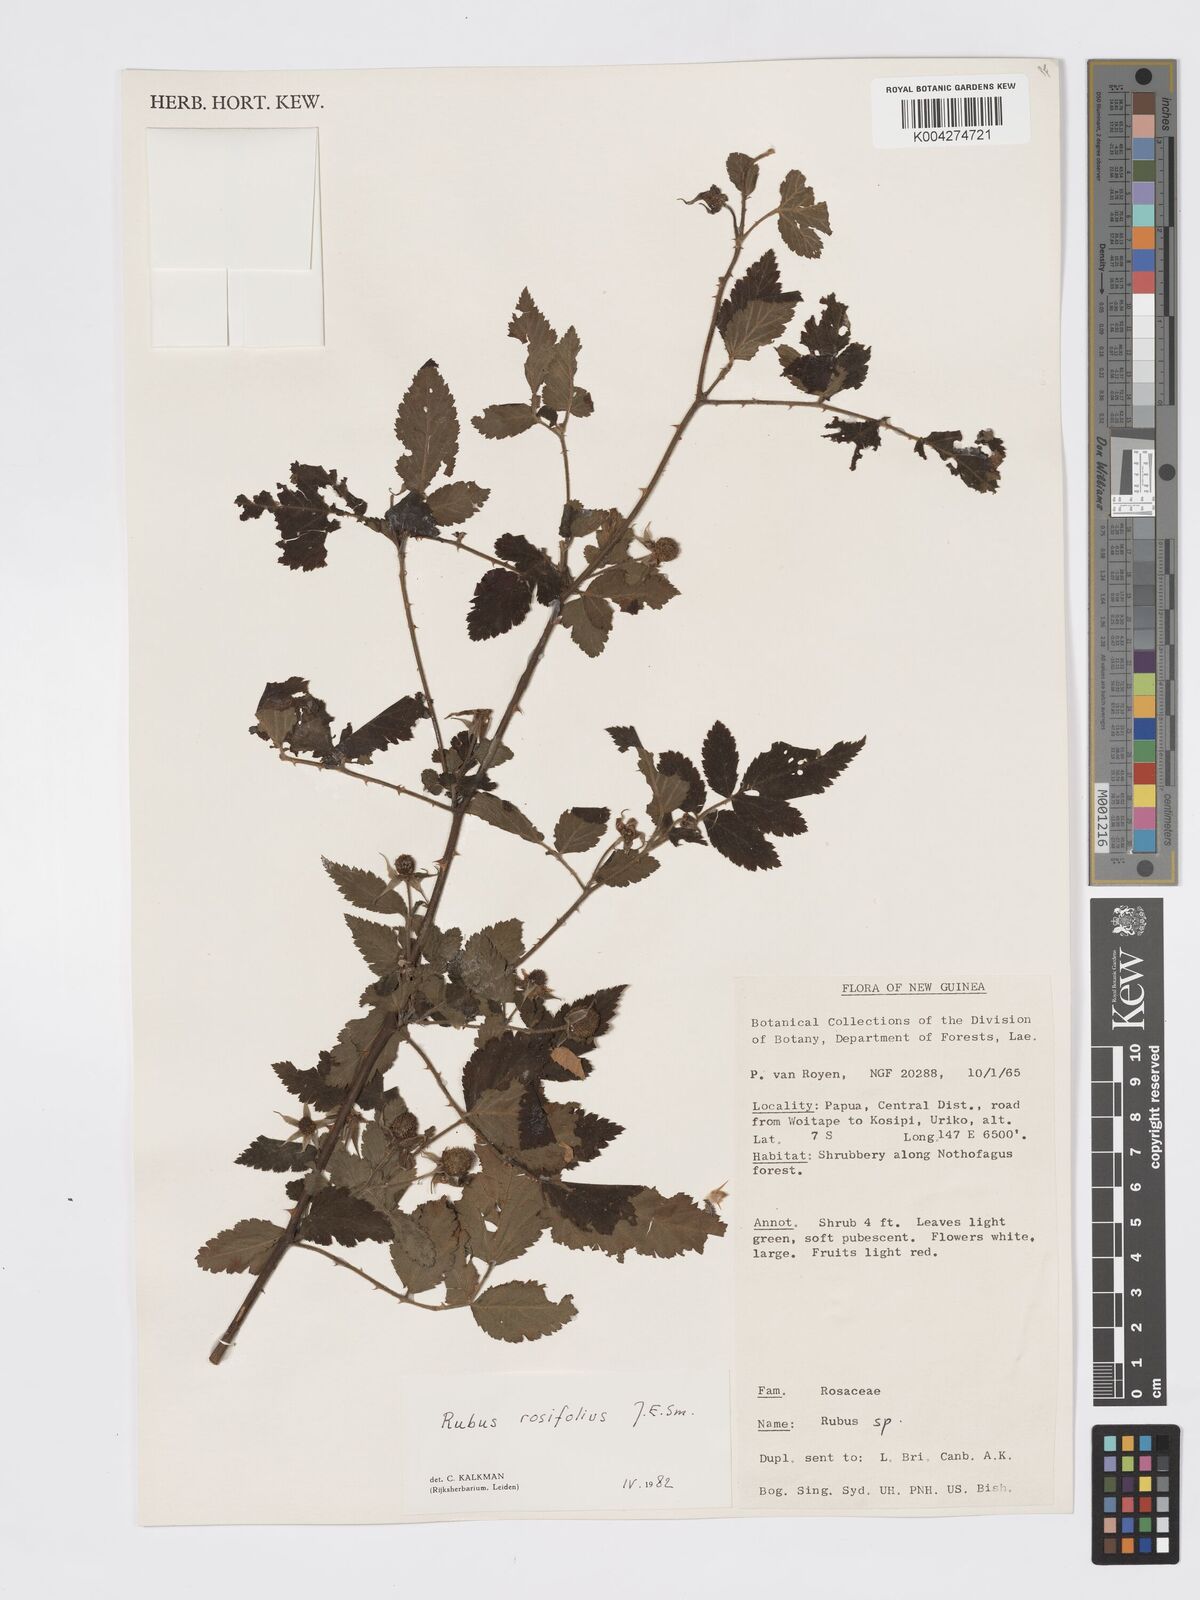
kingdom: Plantae
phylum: Tracheophyta
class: Magnoliopsida
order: Rosales
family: Rosaceae
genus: Rubus
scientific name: Rubus
